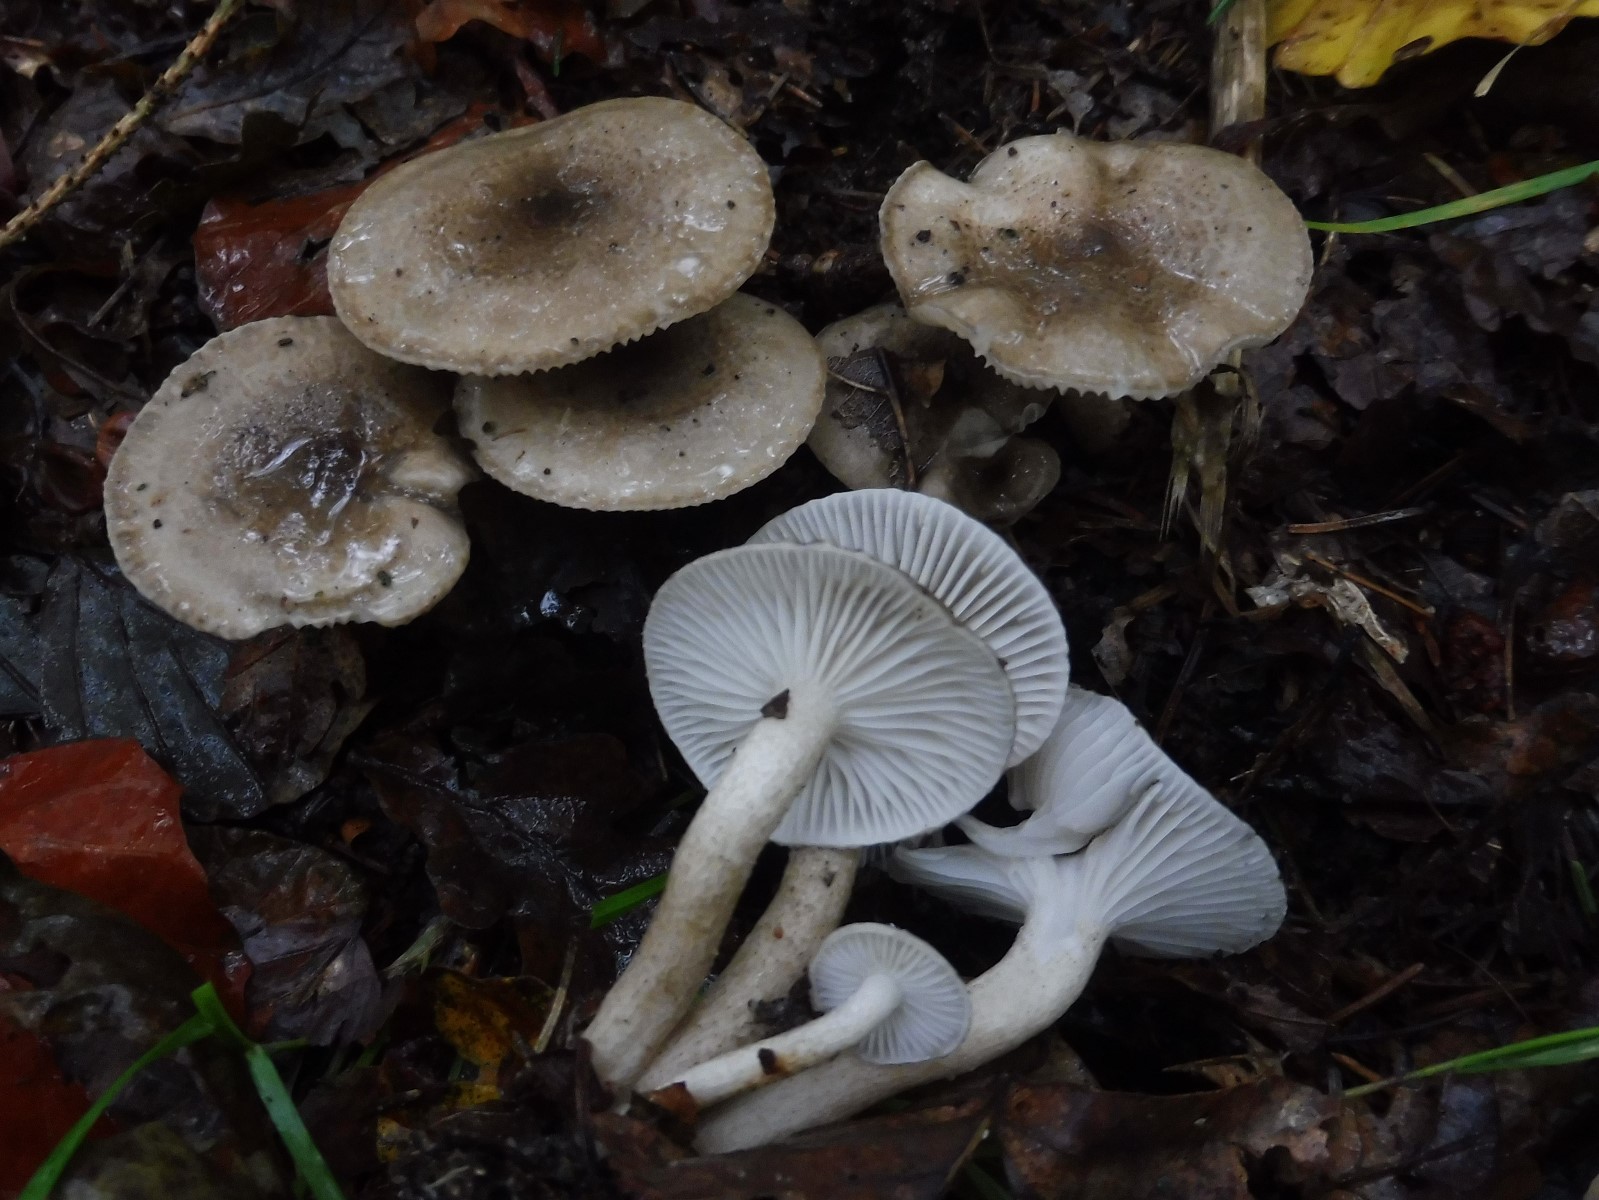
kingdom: Fungi
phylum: Basidiomycota
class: Agaricomycetes
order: Agaricales
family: Hygrophoraceae
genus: Hygrophorus
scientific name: Hygrophorus pustulatus
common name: mørkprikket sneglehat
